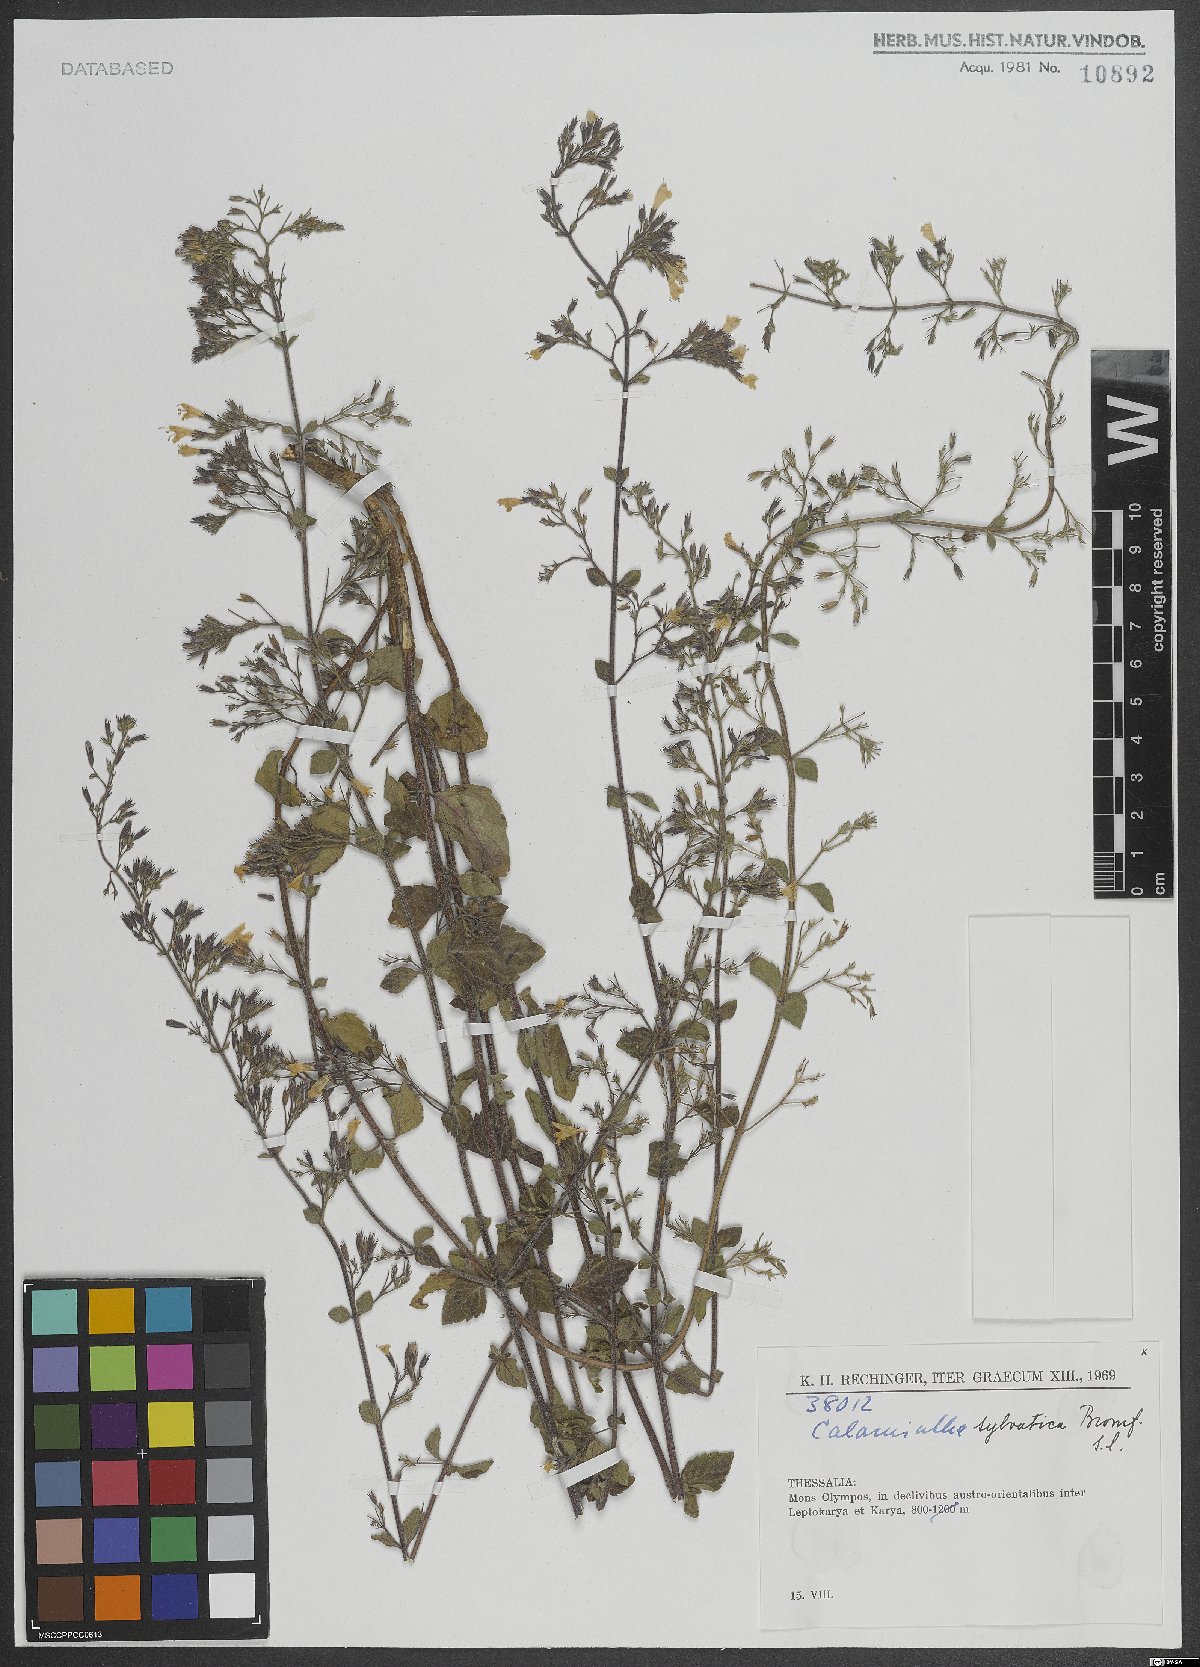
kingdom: Plantae
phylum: Tracheophyta
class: Magnoliopsida
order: Lamiales
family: Lamiaceae
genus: Clinopodium
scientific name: Clinopodium menthifolium
